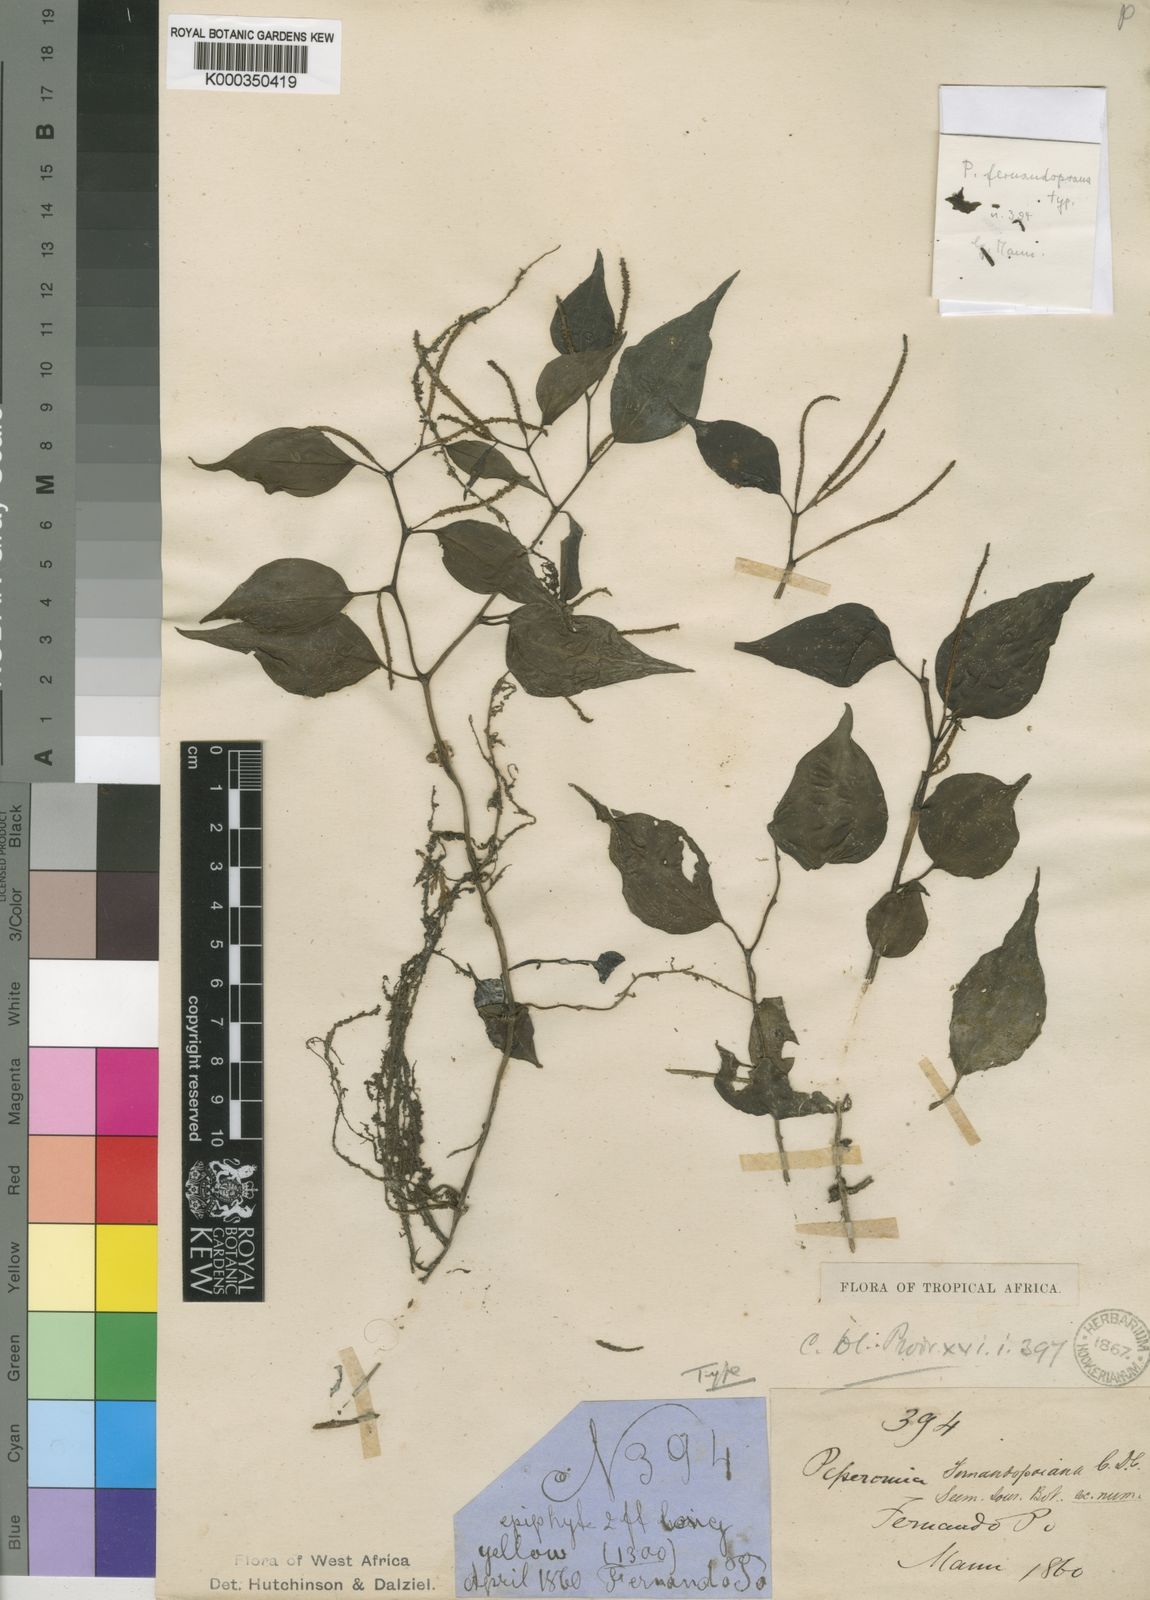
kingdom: Plantae
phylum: Tracheophyta
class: Magnoliopsida
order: Piperales
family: Piperaceae
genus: Peperomia
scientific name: Peperomia fernandopoiana
